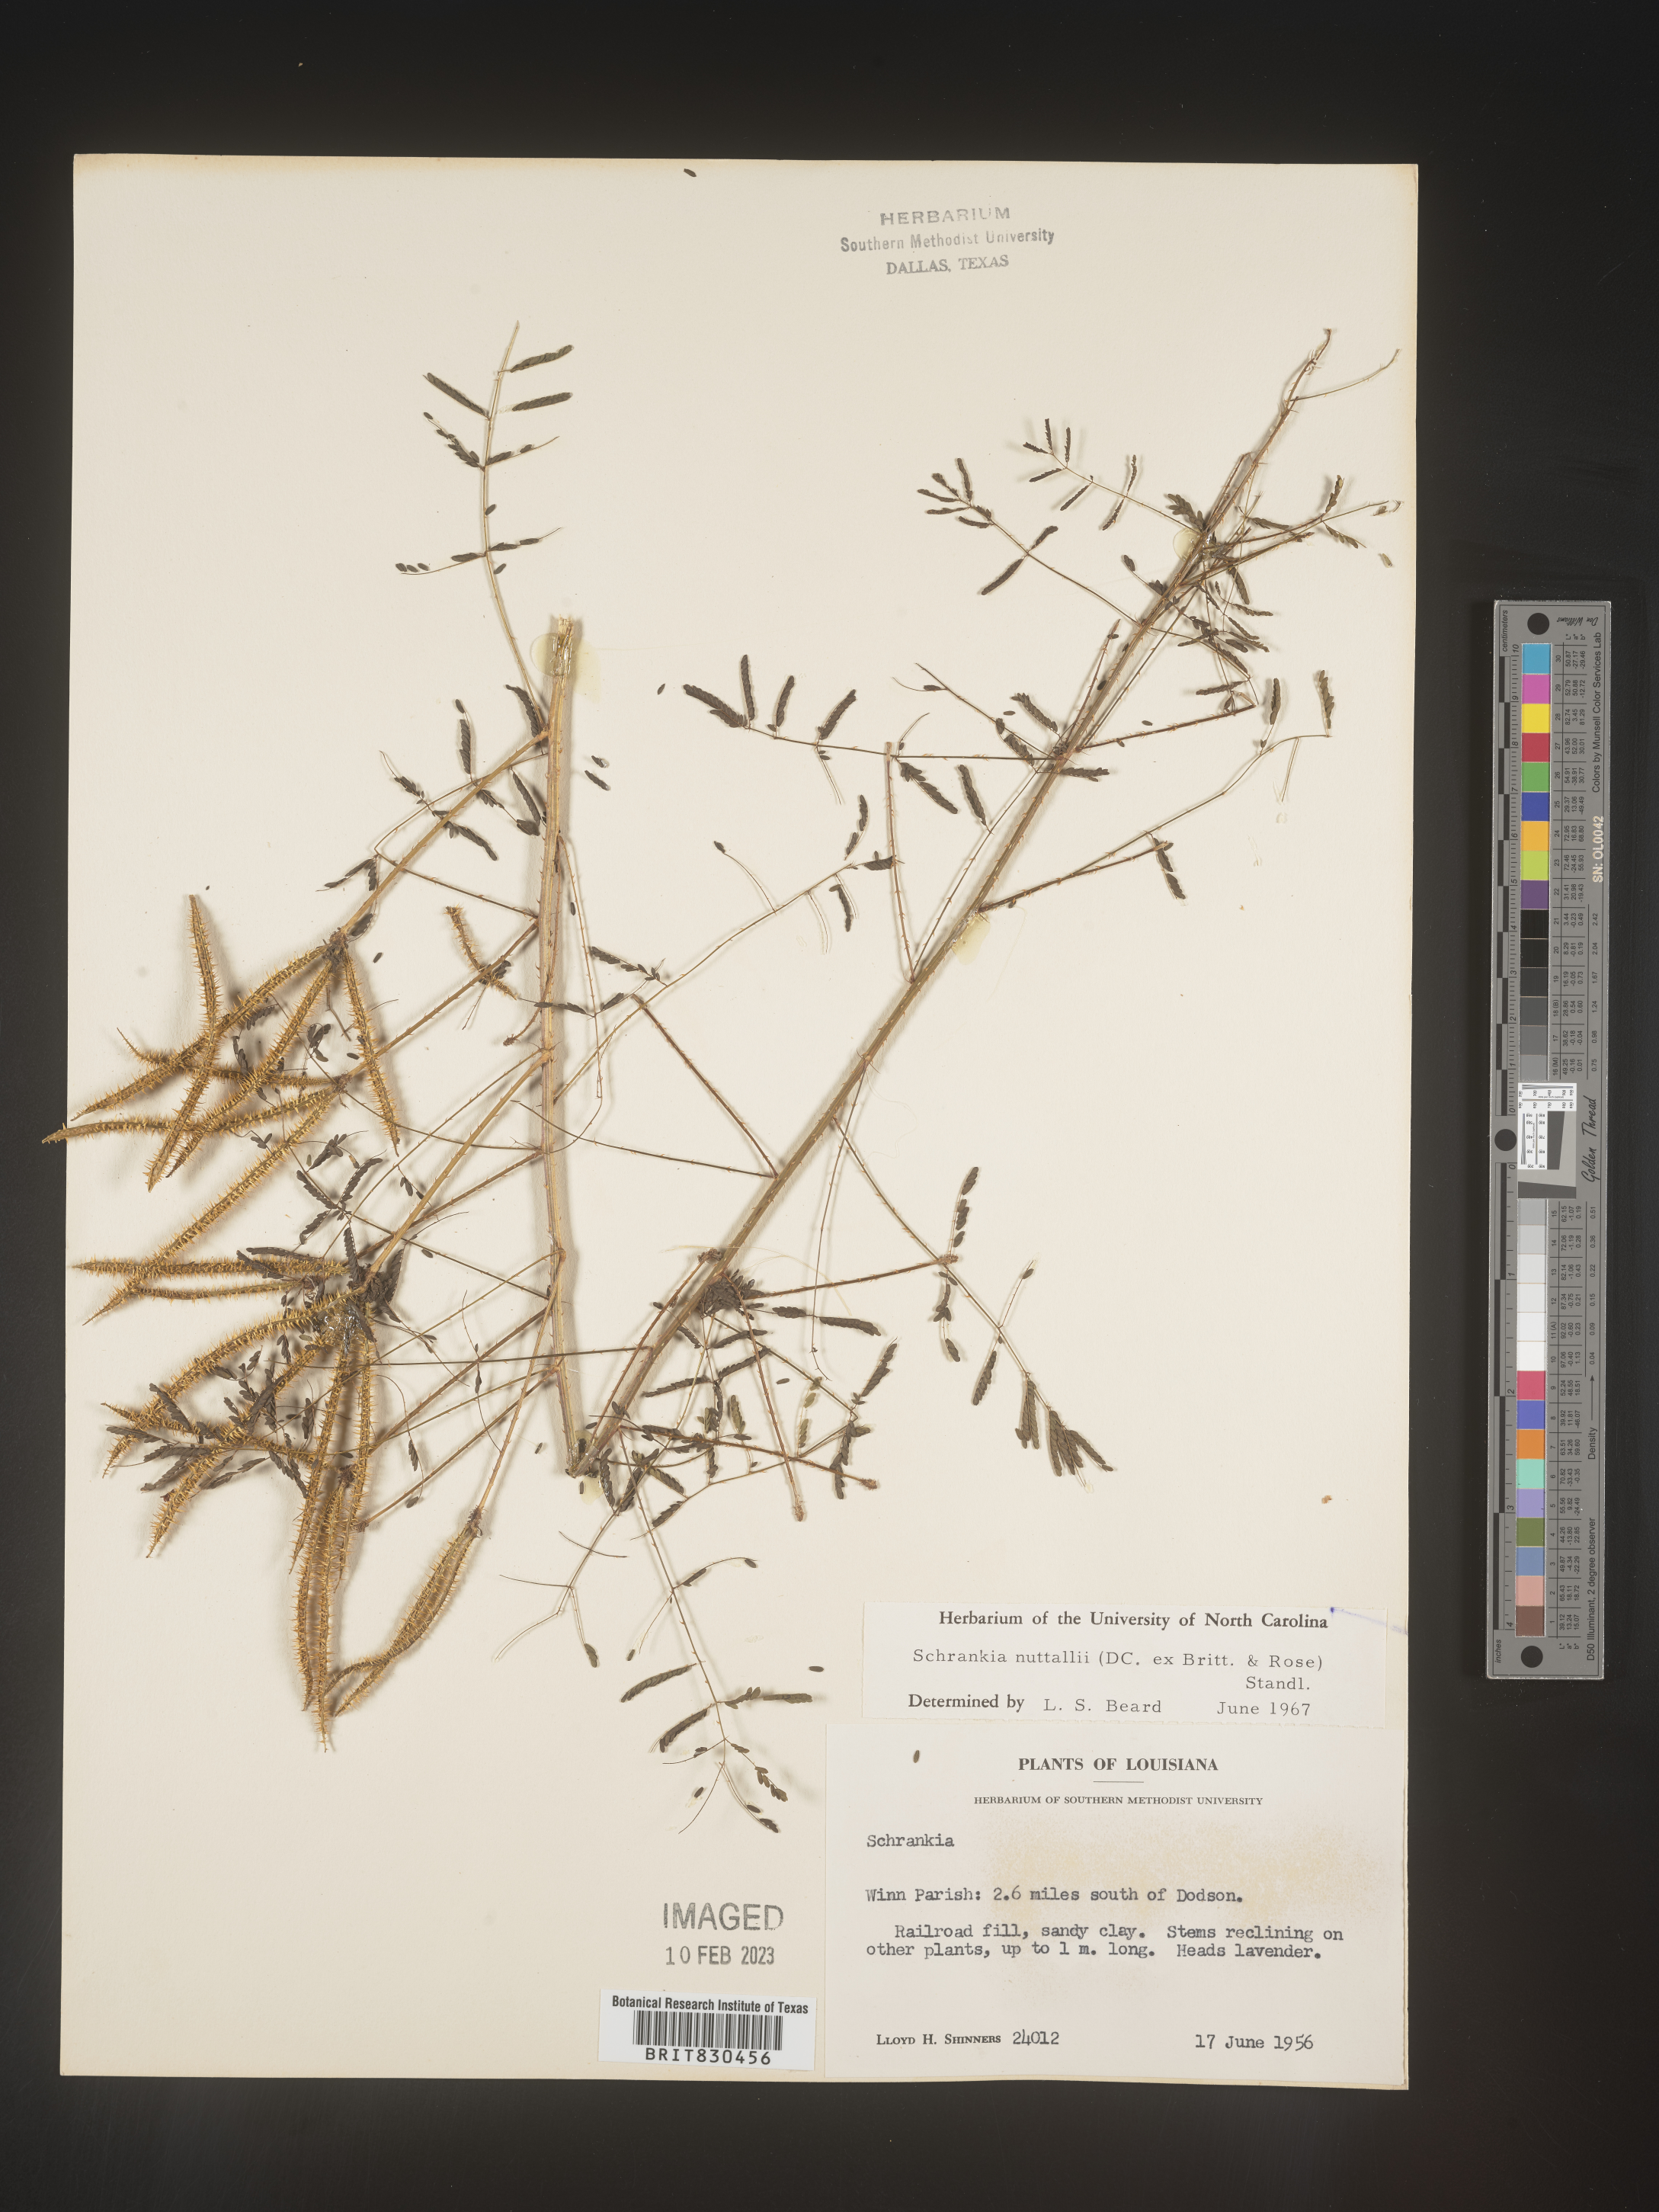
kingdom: Plantae
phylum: Tracheophyta
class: Magnoliopsida
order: Fabales
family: Fabaceae
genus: Mimosa
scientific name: Mimosa quadrivalvis
